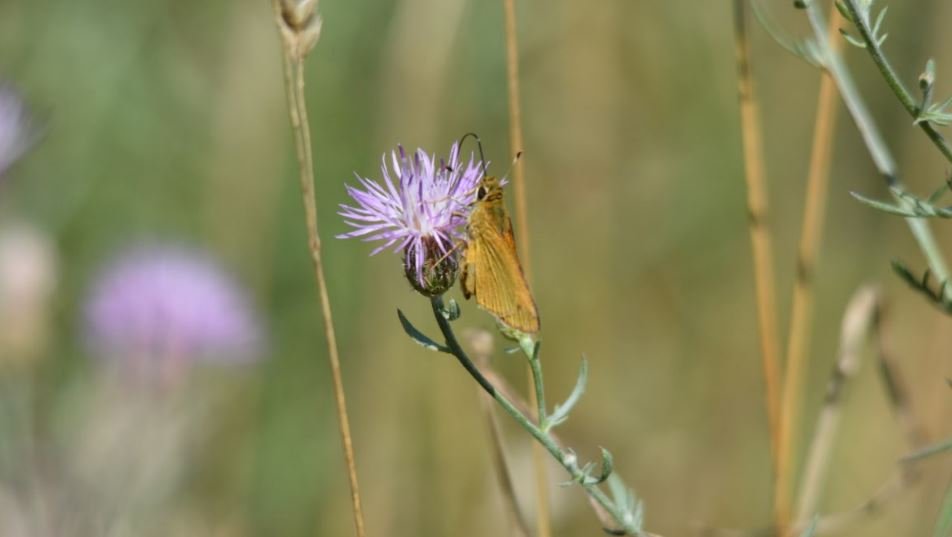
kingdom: Animalia
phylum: Arthropoda
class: Insecta
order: Lepidoptera
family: Hesperiidae
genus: Atrytone
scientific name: Atrytone delaware
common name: Delaware Skipper
